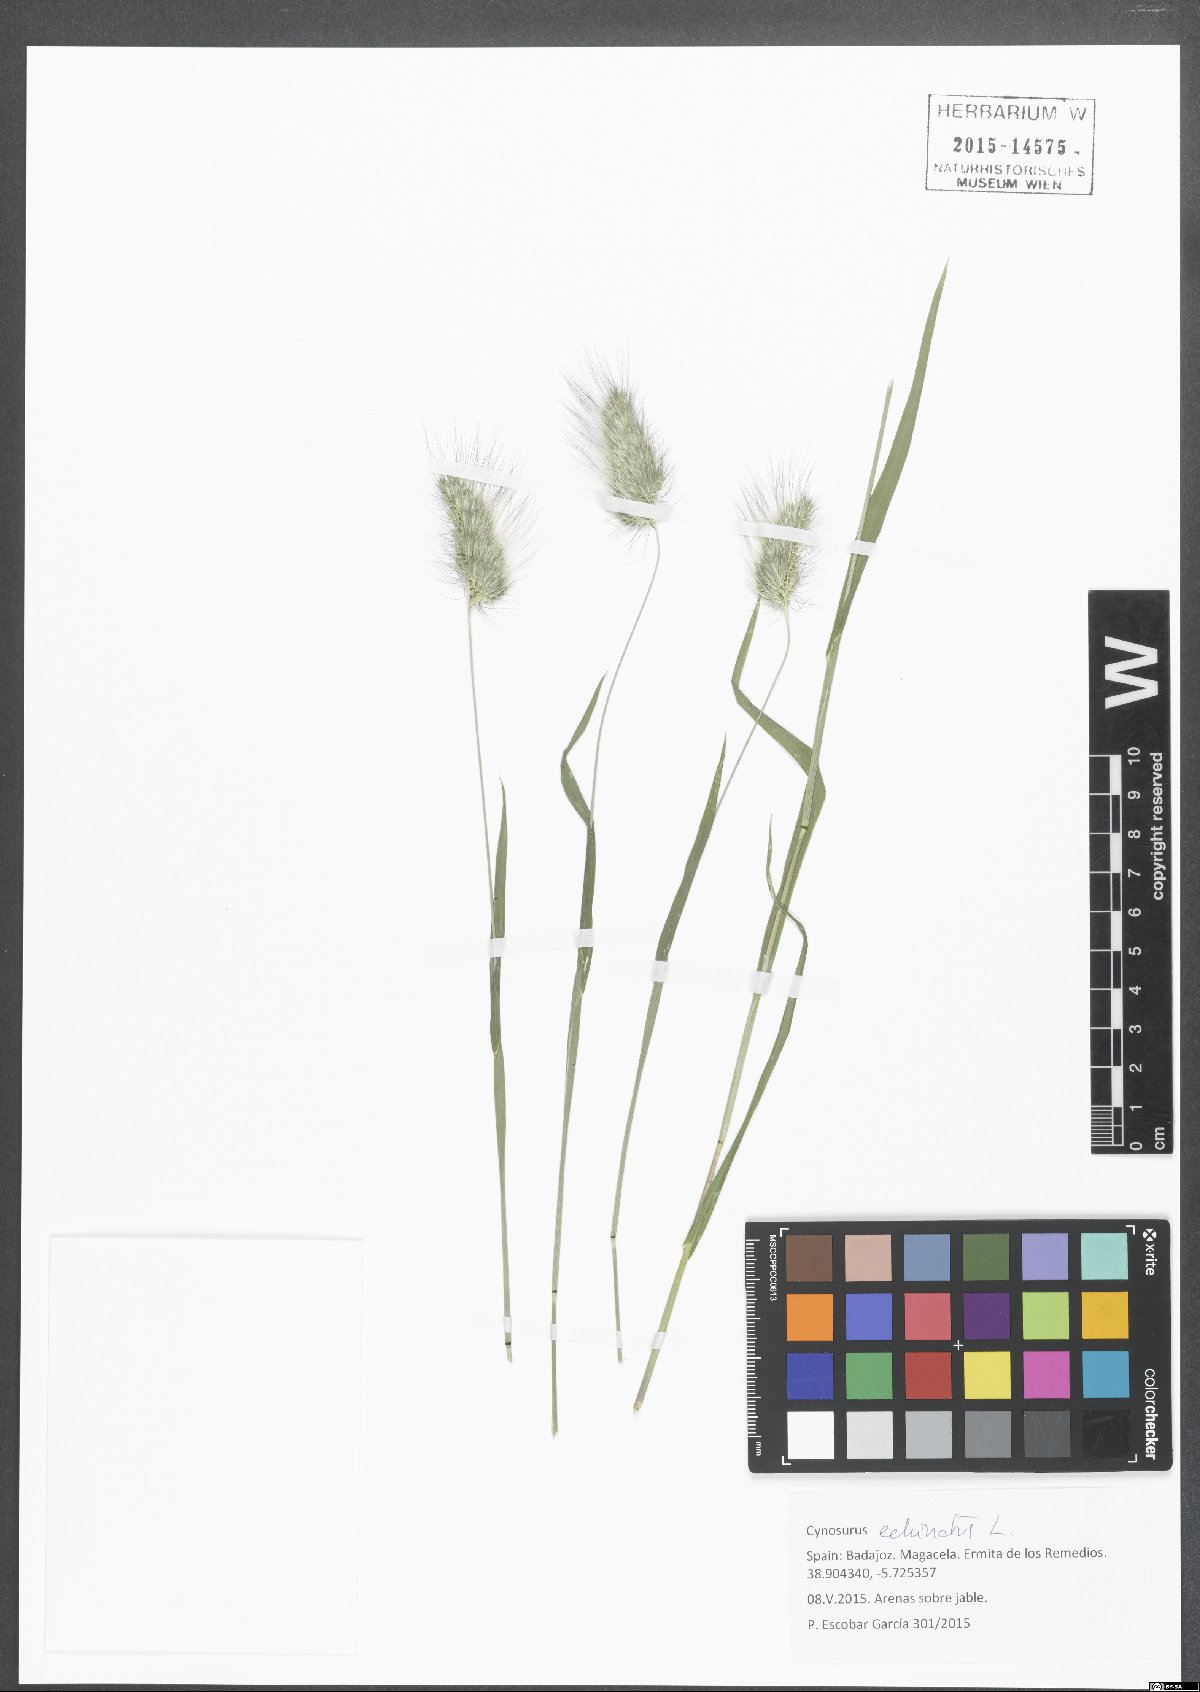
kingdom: Plantae
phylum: Tracheophyta
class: Liliopsida
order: Poales
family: Poaceae
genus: Cynosurus
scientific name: Cynosurus echinatus
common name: Rough dog's-tail
